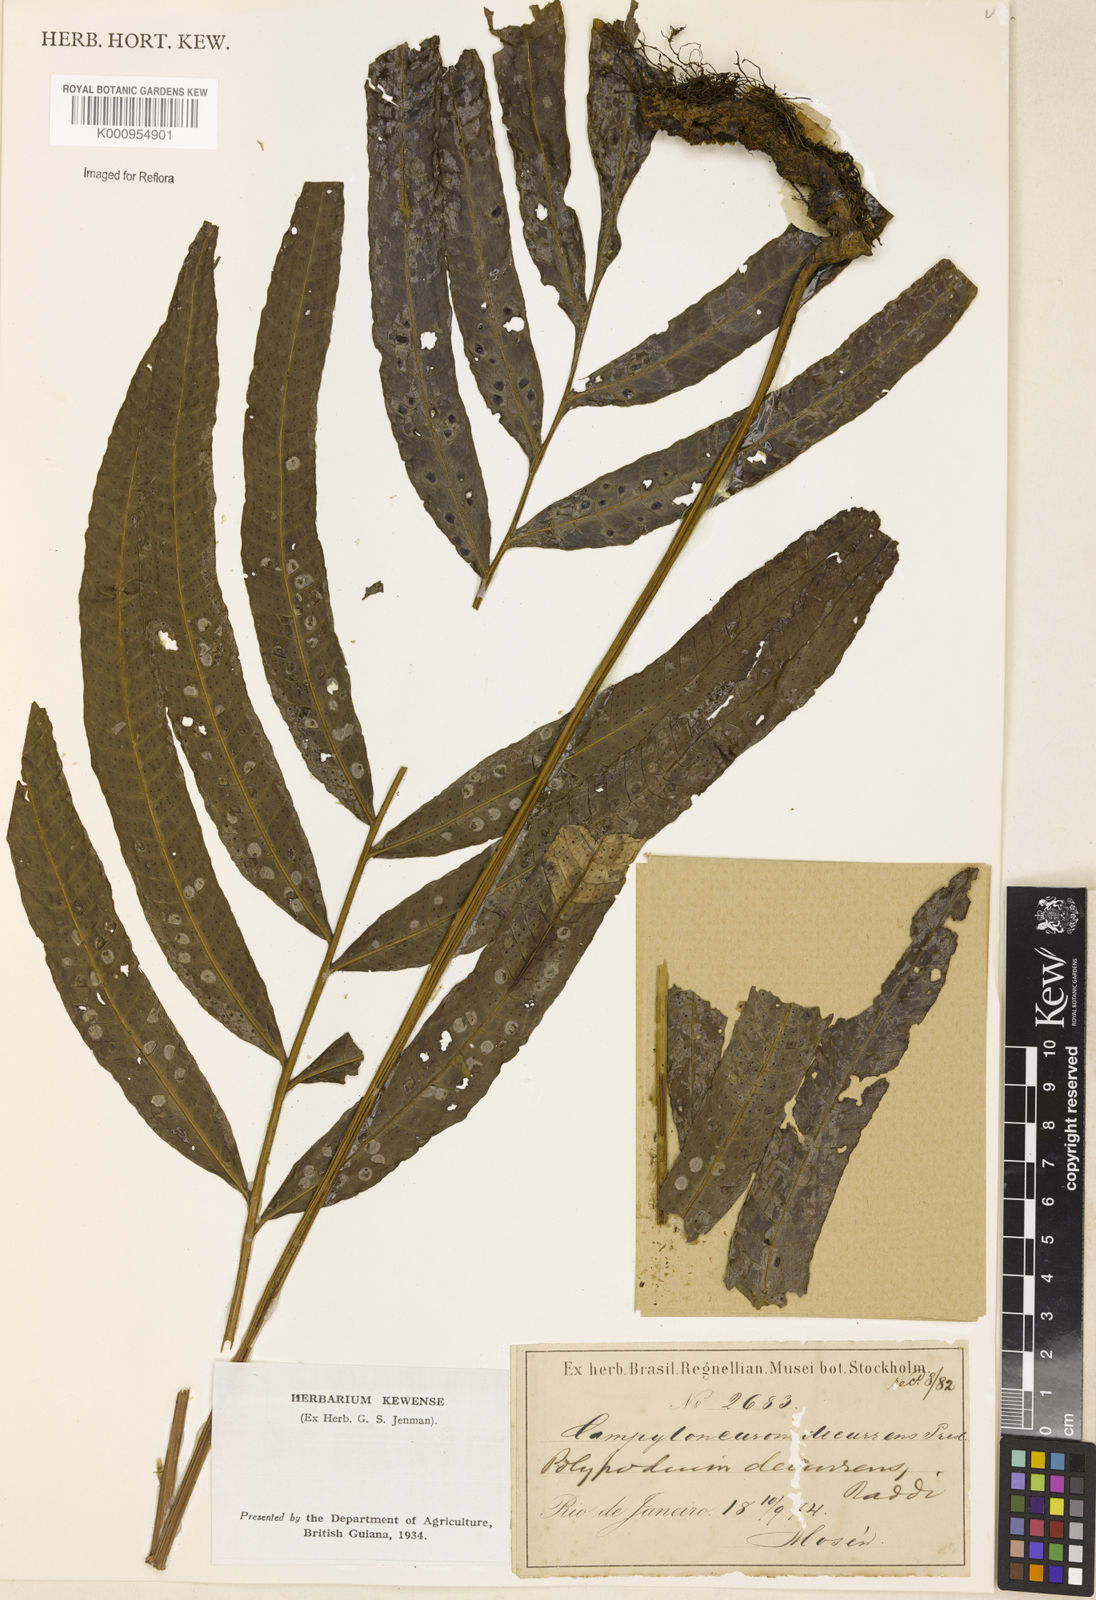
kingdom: Plantae
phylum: Tracheophyta
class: Polypodiopsida
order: Polypodiales
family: Polypodiaceae
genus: Campyloneurum
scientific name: Campyloneurum decurrens
